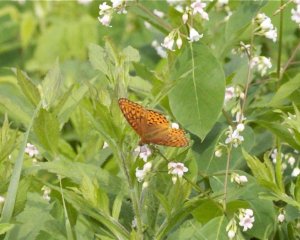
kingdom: Animalia
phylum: Arthropoda
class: Insecta
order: Lepidoptera
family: Nymphalidae
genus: Speyeria
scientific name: Speyeria atlantis
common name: Atlantis Fritillary
